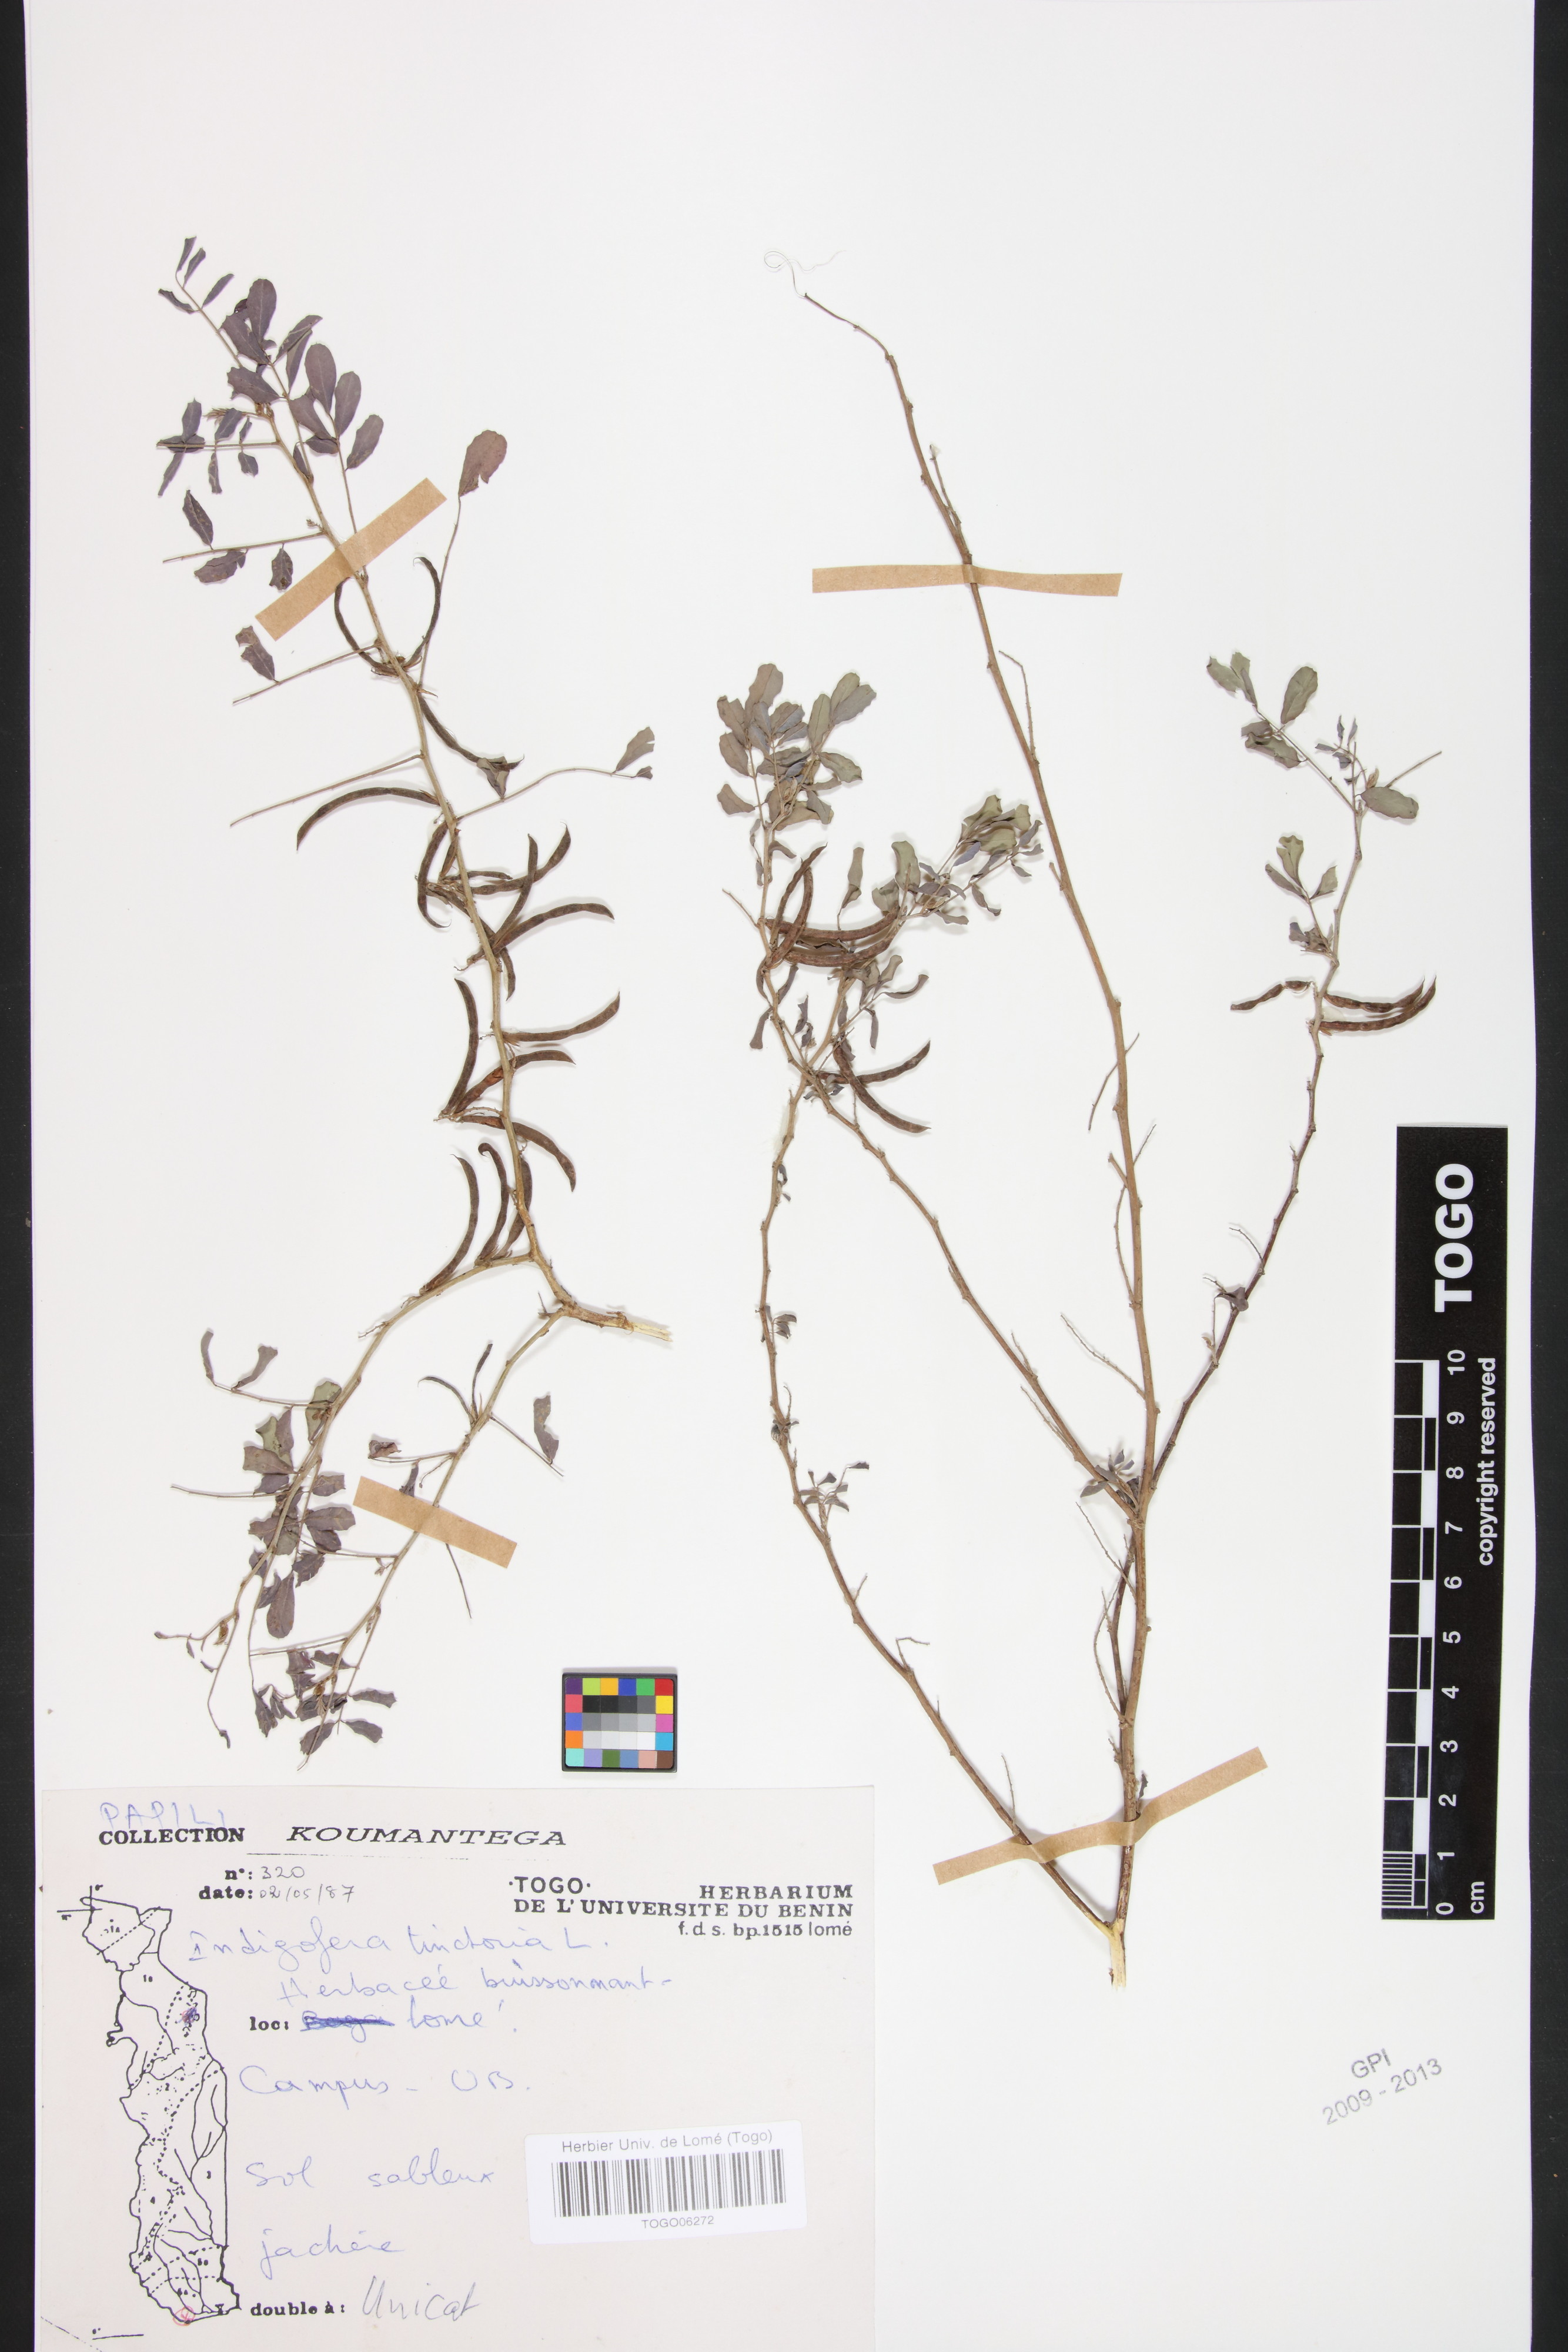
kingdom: Plantae
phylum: Tracheophyta
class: Magnoliopsida
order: Fabales
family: Fabaceae
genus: Indigofera
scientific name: Indigofera tinctoria
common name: True indigo
